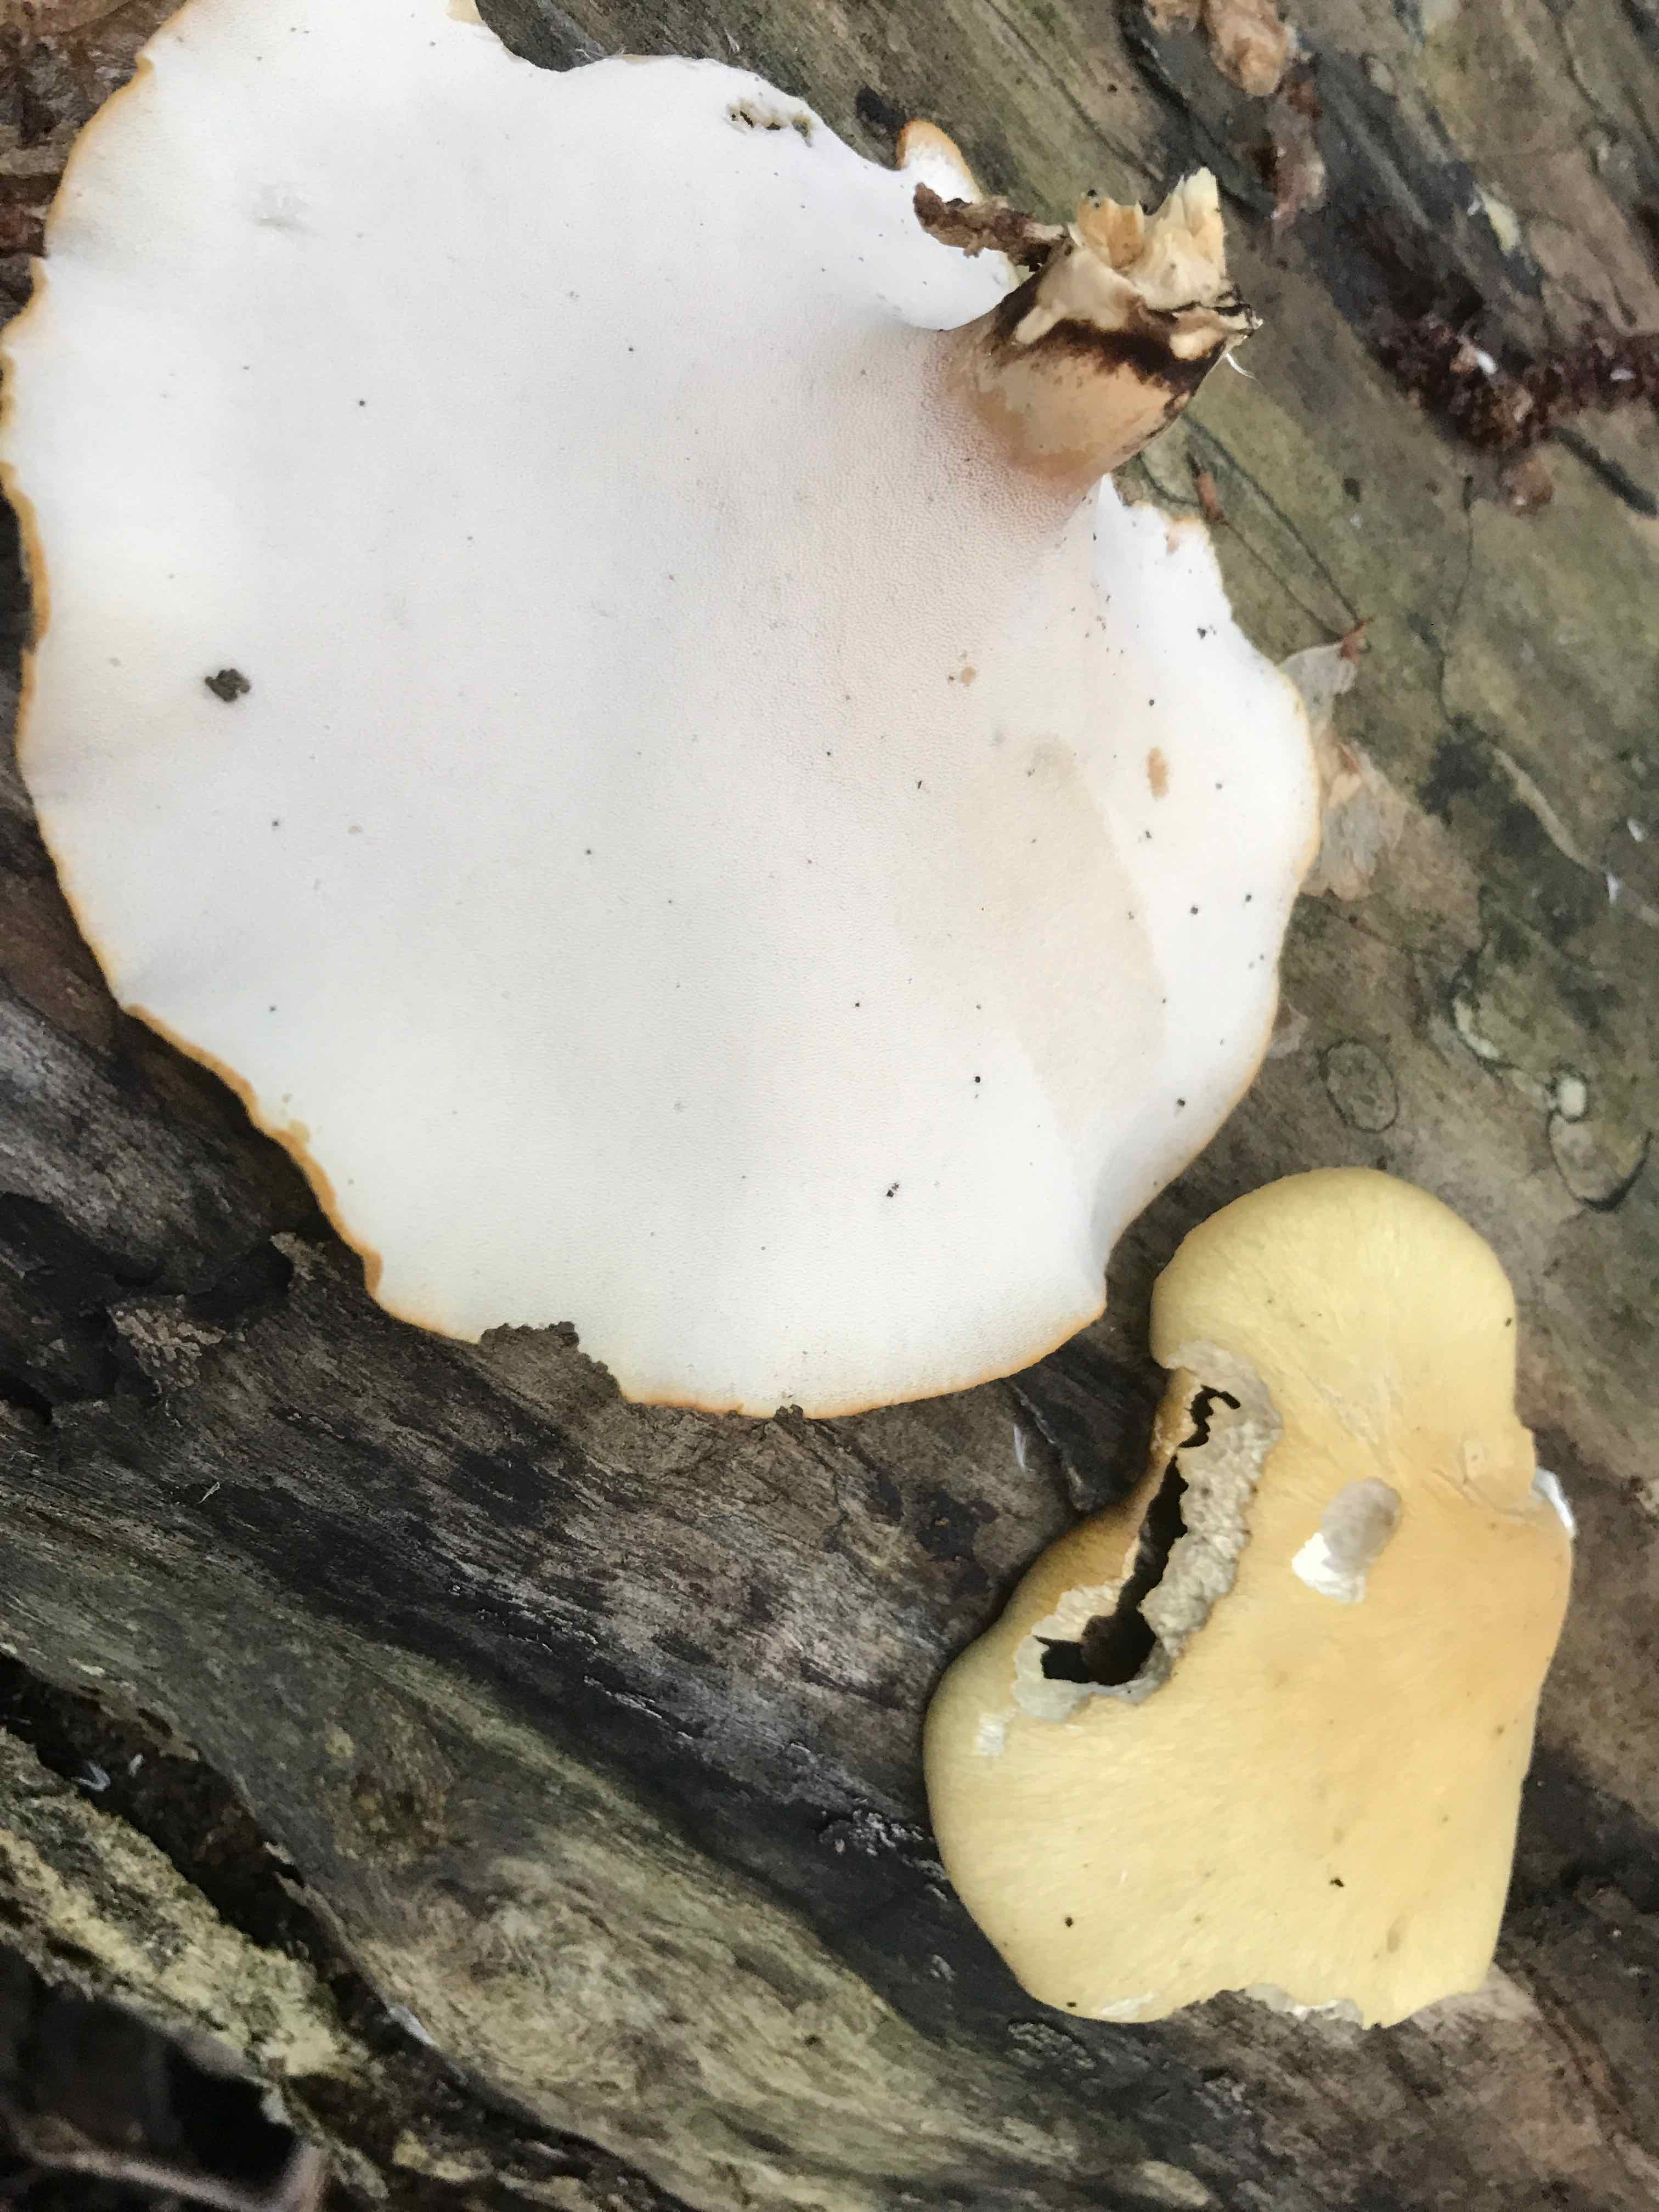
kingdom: Fungi
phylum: Basidiomycota
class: Agaricomycetes
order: Polyporales
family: Polyporaceae
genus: Cerioporus
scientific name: Cerioporus varius
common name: foranderlig stilkporesvamp
